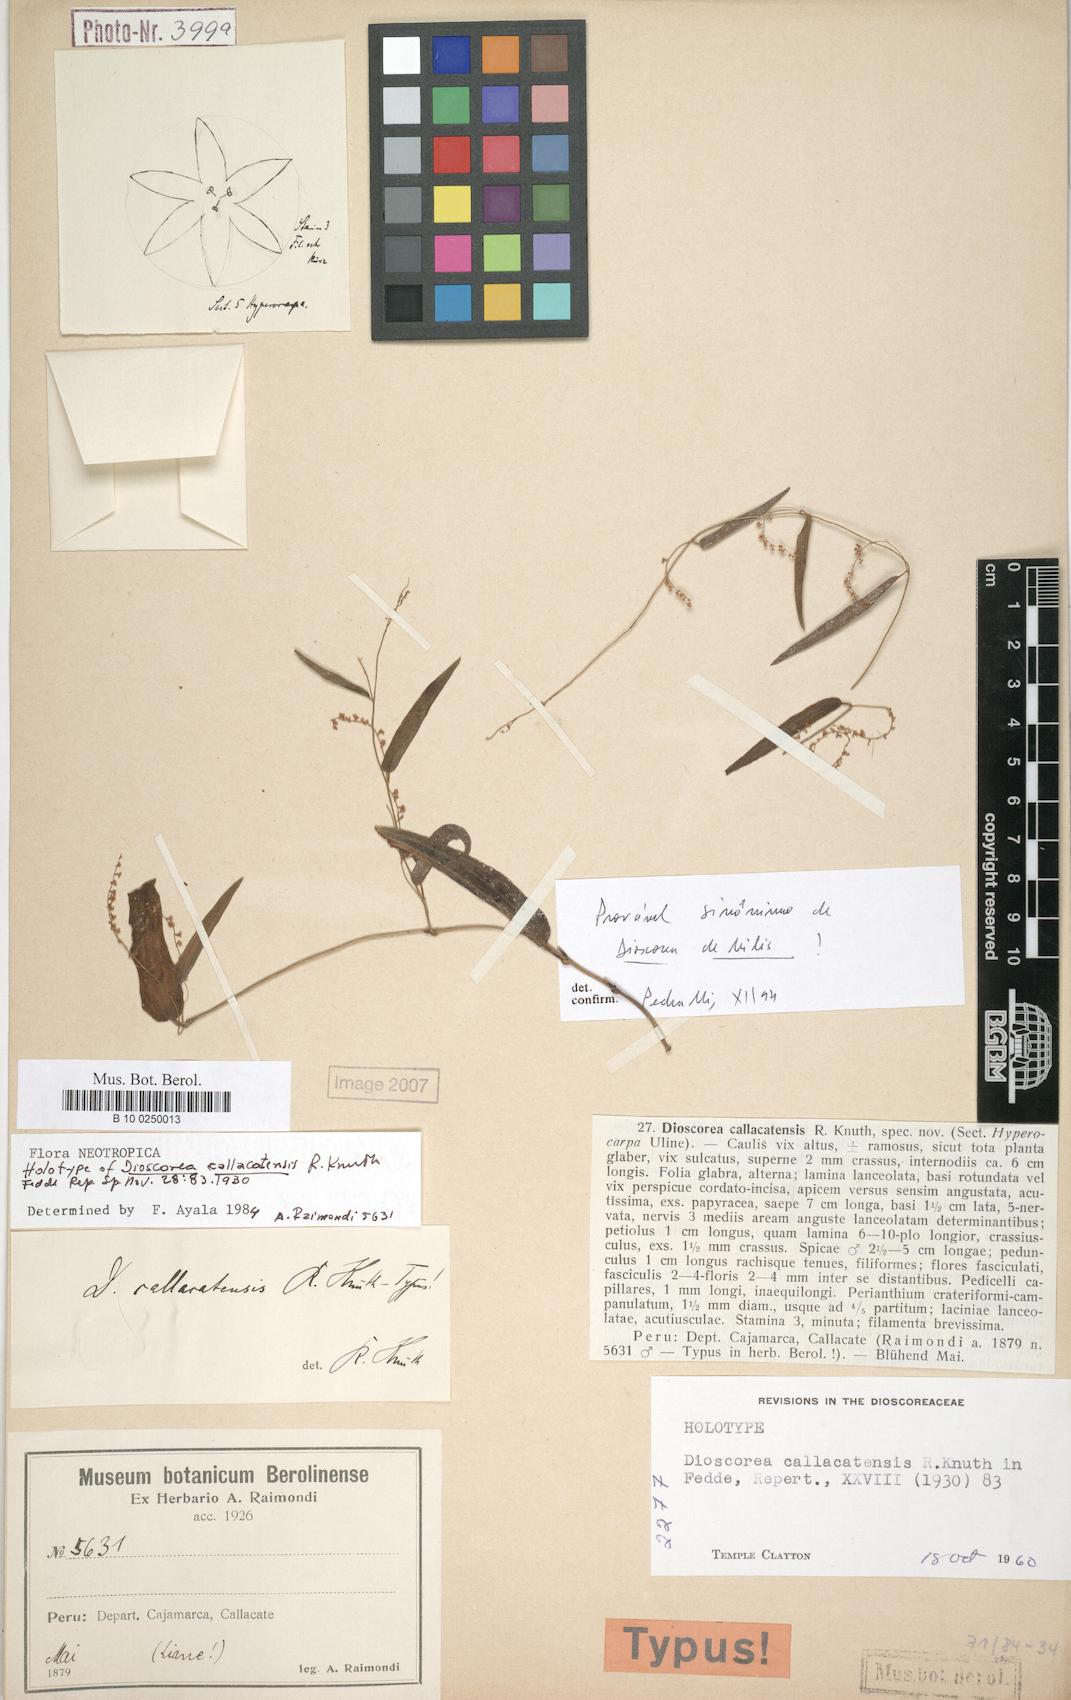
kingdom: Plantae
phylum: Tracheophyta
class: Liliopsida
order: Dioscoreales
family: Dioscoreaceae
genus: Dioscorea
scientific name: Dioscorea callacatensis
